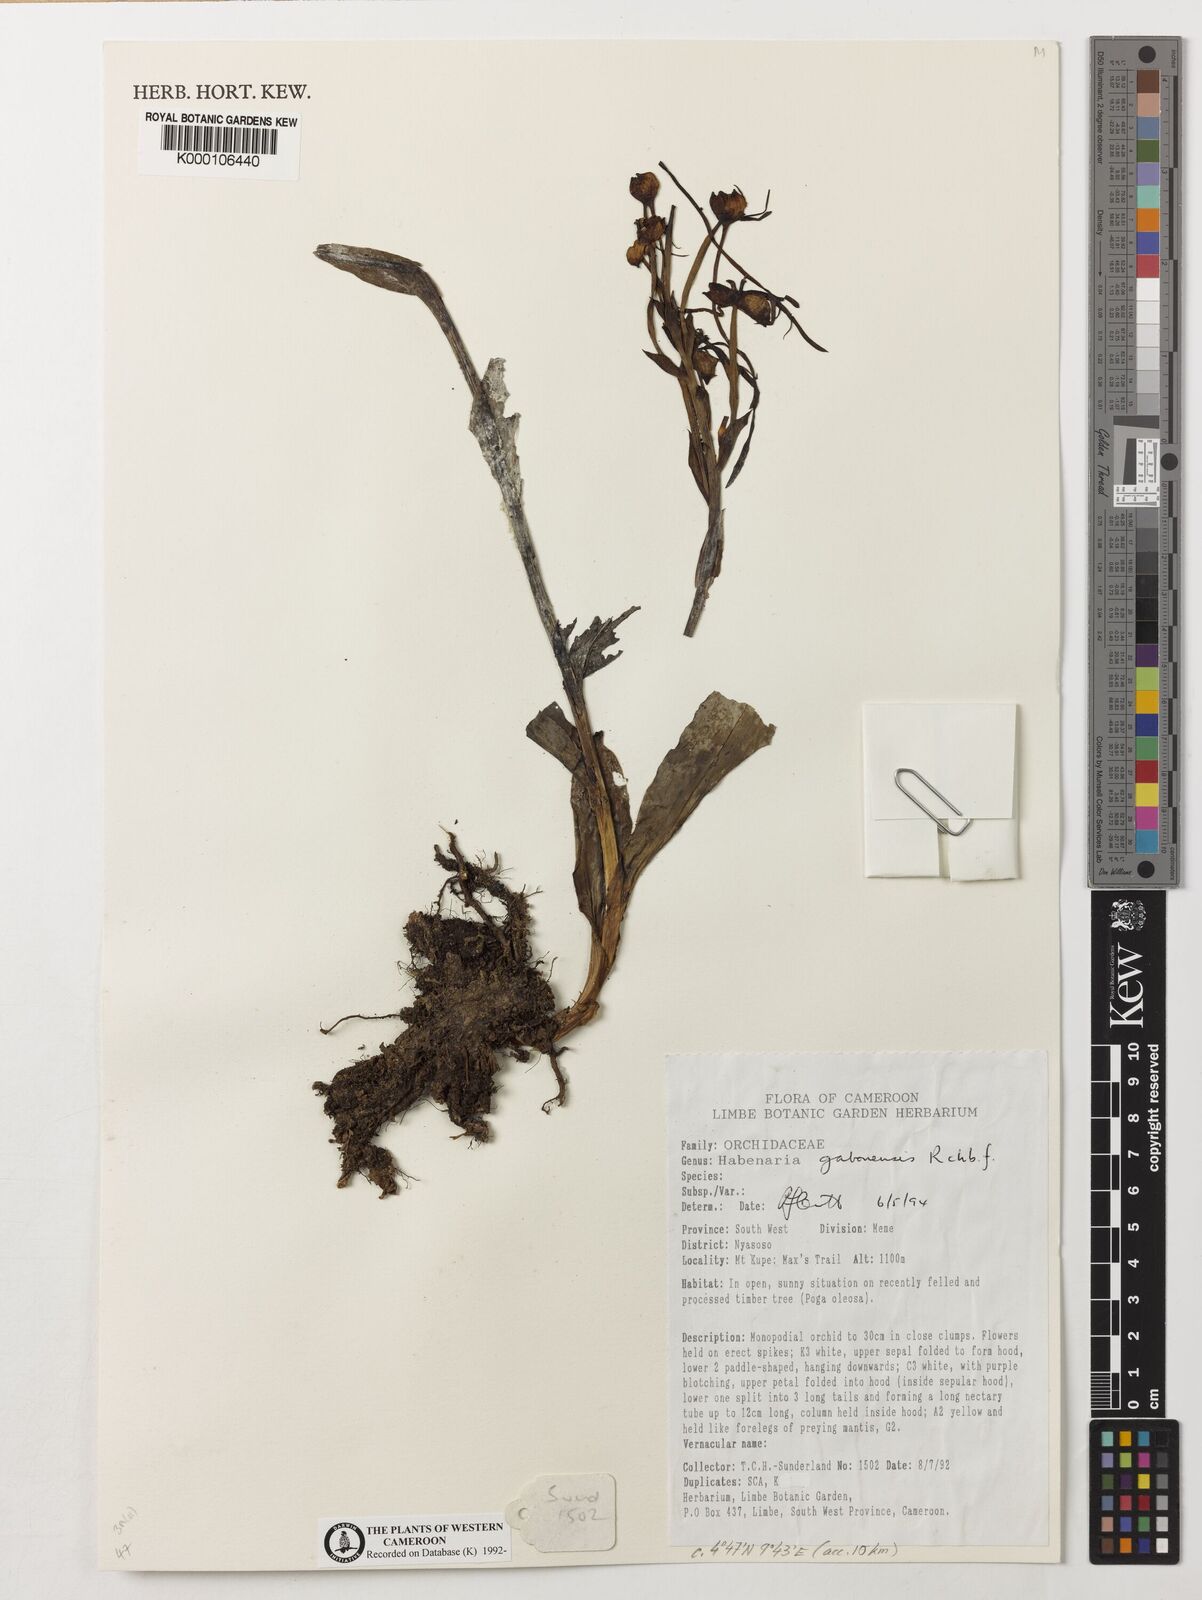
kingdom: Plantae
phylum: Tracheophyta
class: Liliopsida
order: Asparagales
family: Orchidaceae
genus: Habenaria
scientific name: Habenaria procera
